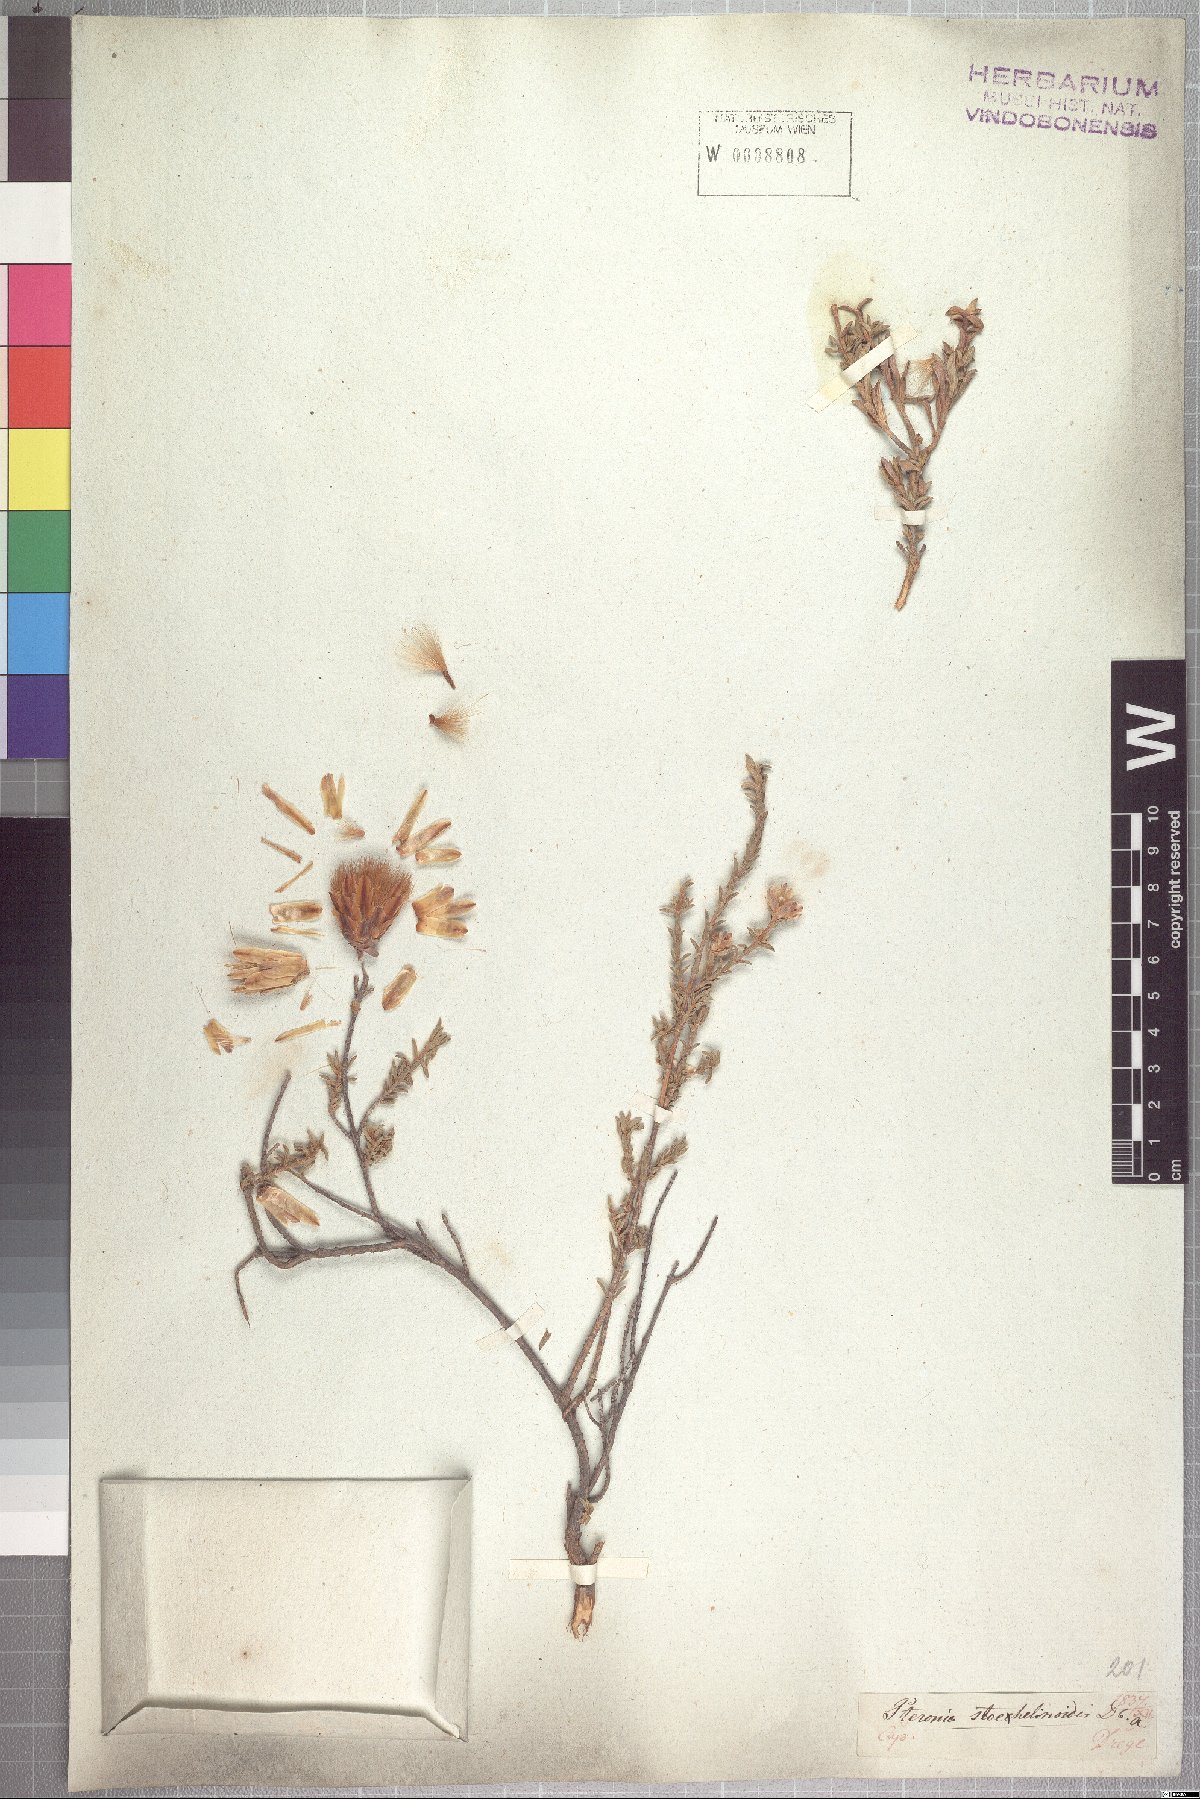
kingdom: Plantae
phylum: Tracheophyta
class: Magnoliopsida
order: Asterales
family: Asteraceae
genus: Pteronia
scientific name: Pteronia stoehelinoides
